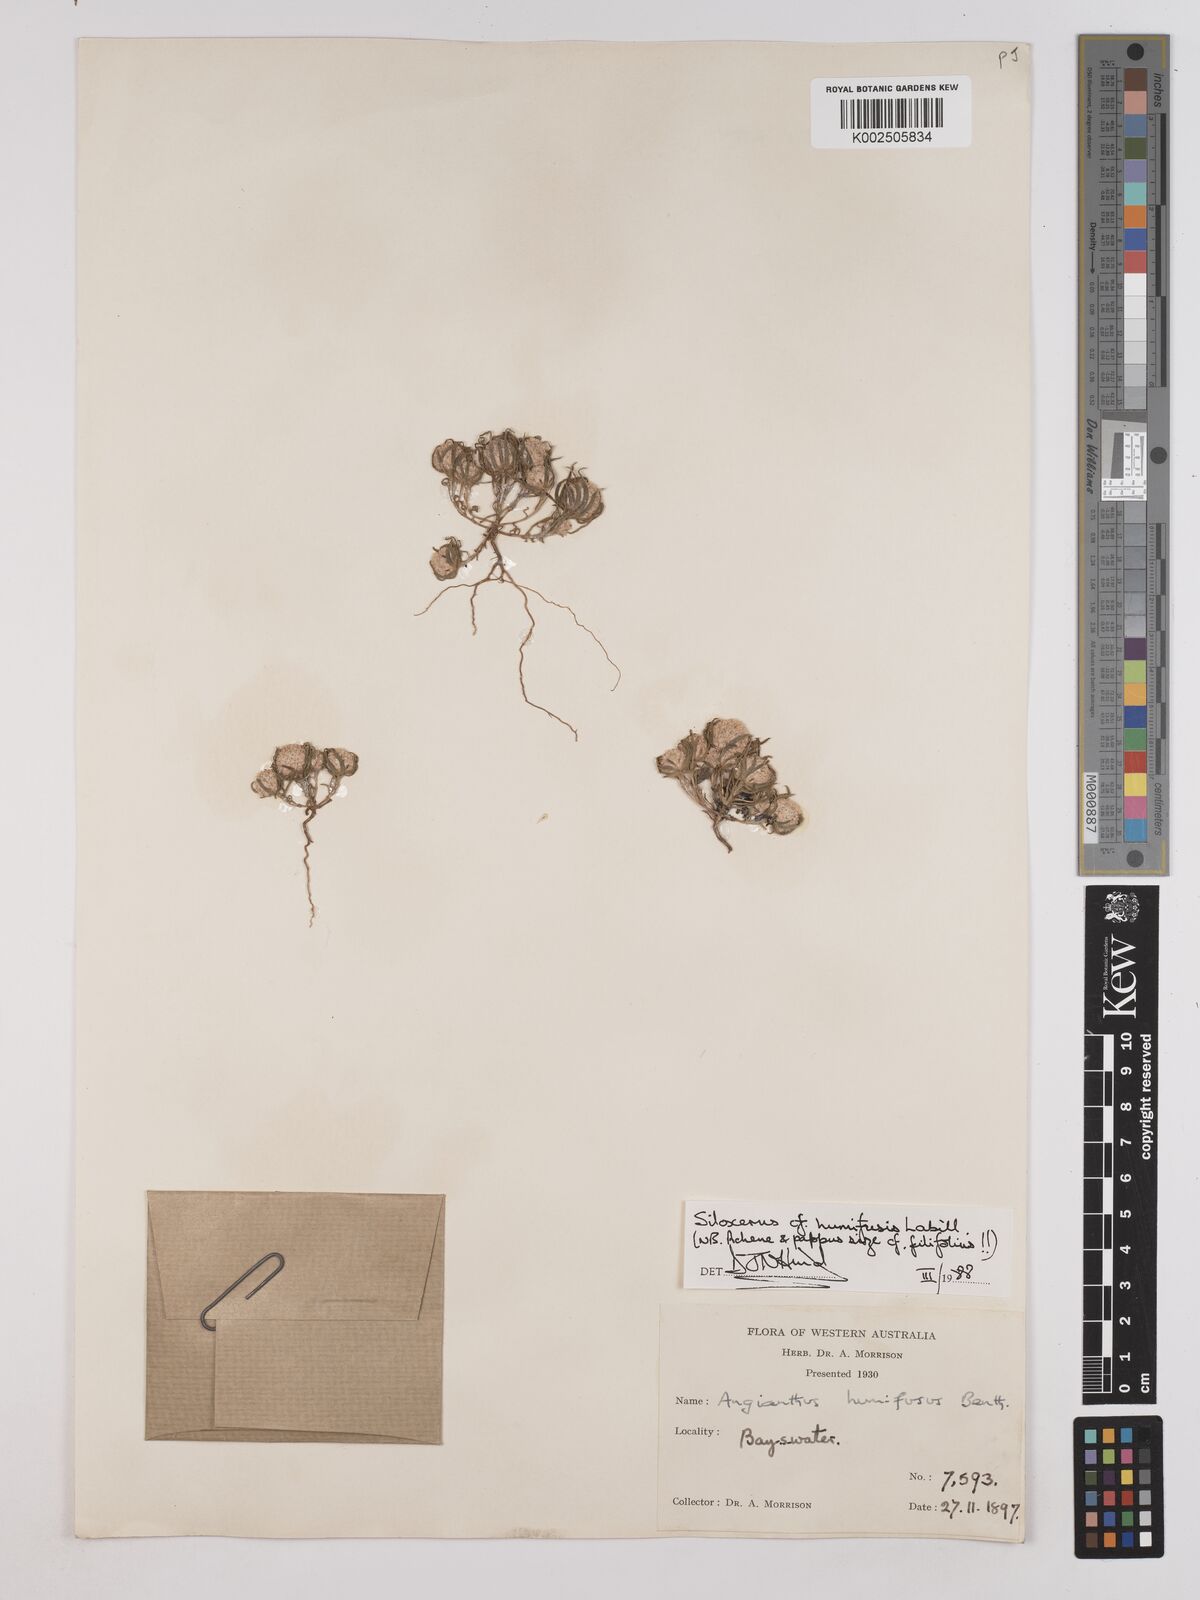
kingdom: Plantae
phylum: Tracheophyta
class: Magnoliopsida
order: Asterales
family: Asteraceae
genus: Siloxerus
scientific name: Siloxerus humifusus
